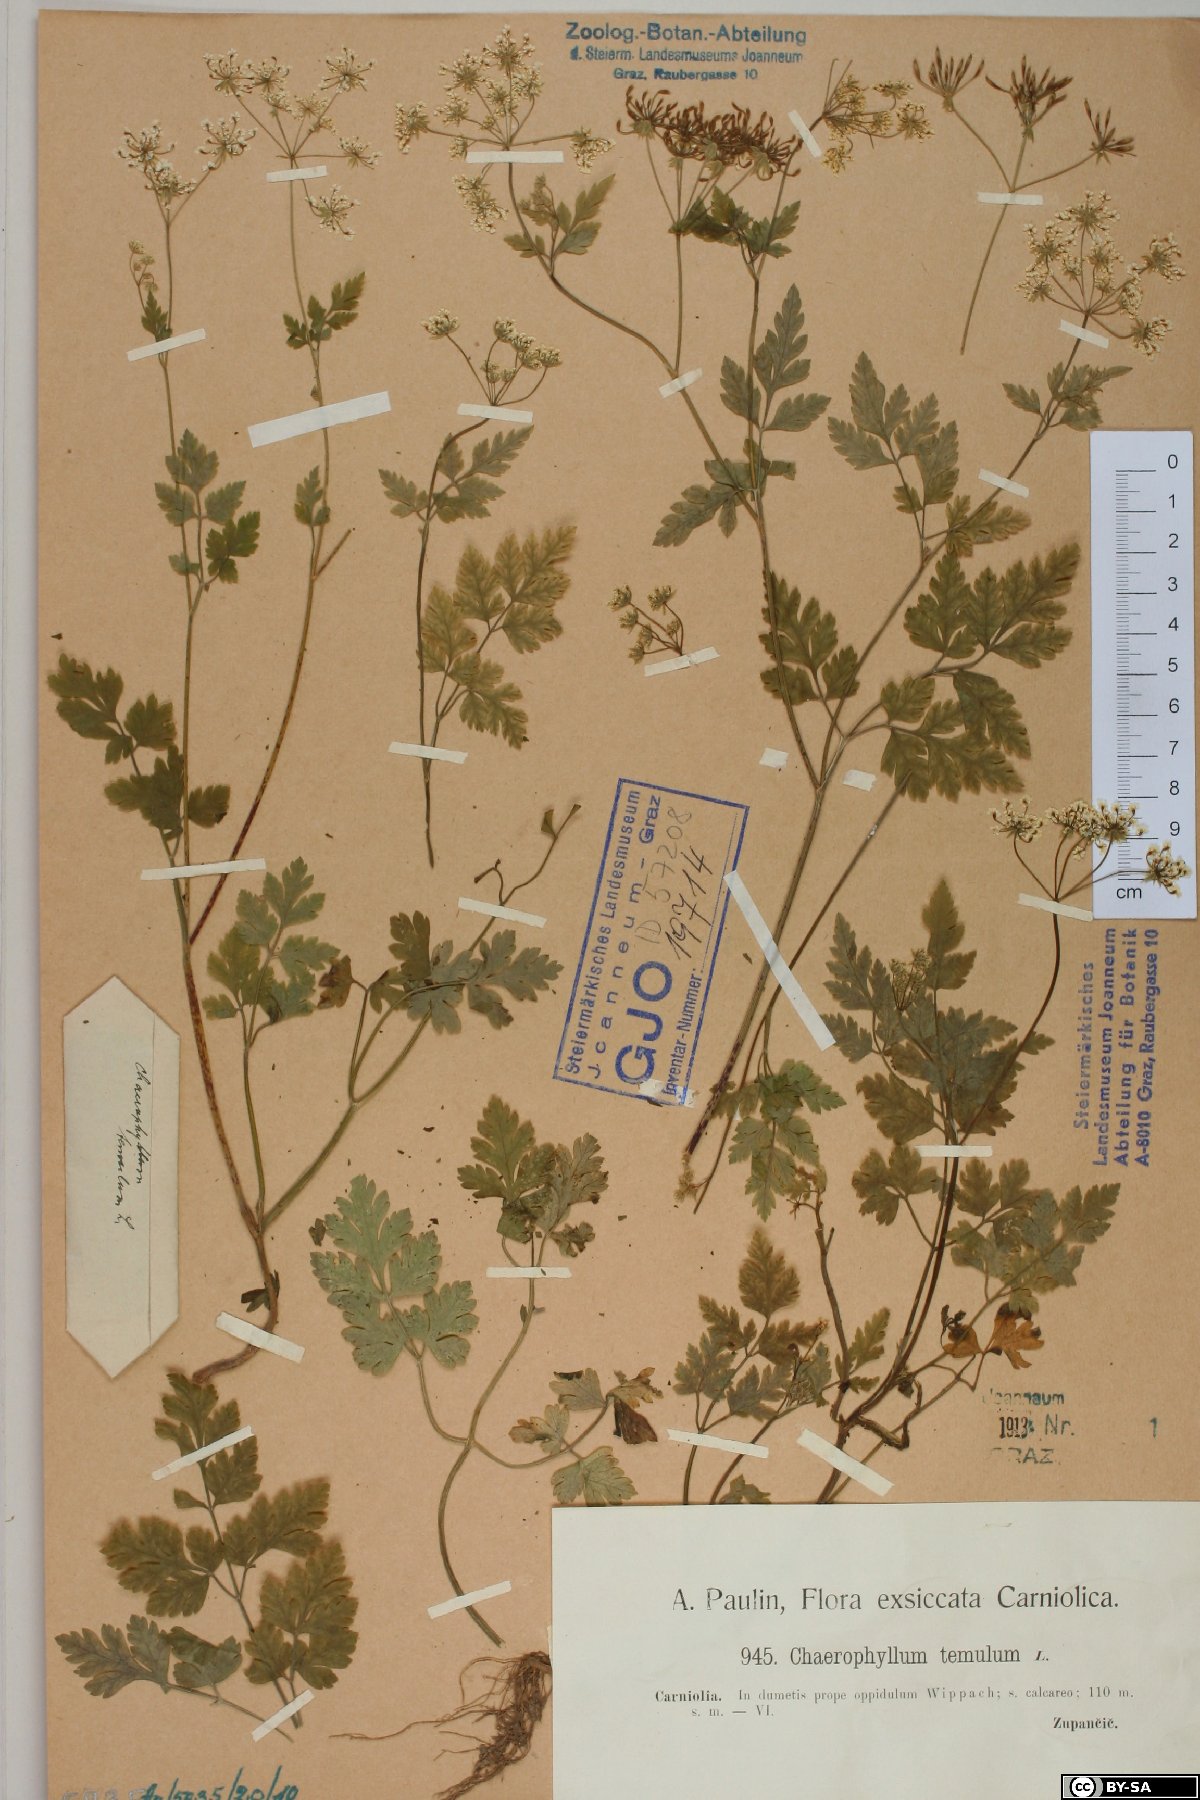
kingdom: Plantae
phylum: Tracheophyta
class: Magnoliopsida
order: Apiales
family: Apiaceae
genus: Chaerophyllum
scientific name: Chaerophyllum temulum
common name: Rough chervil
